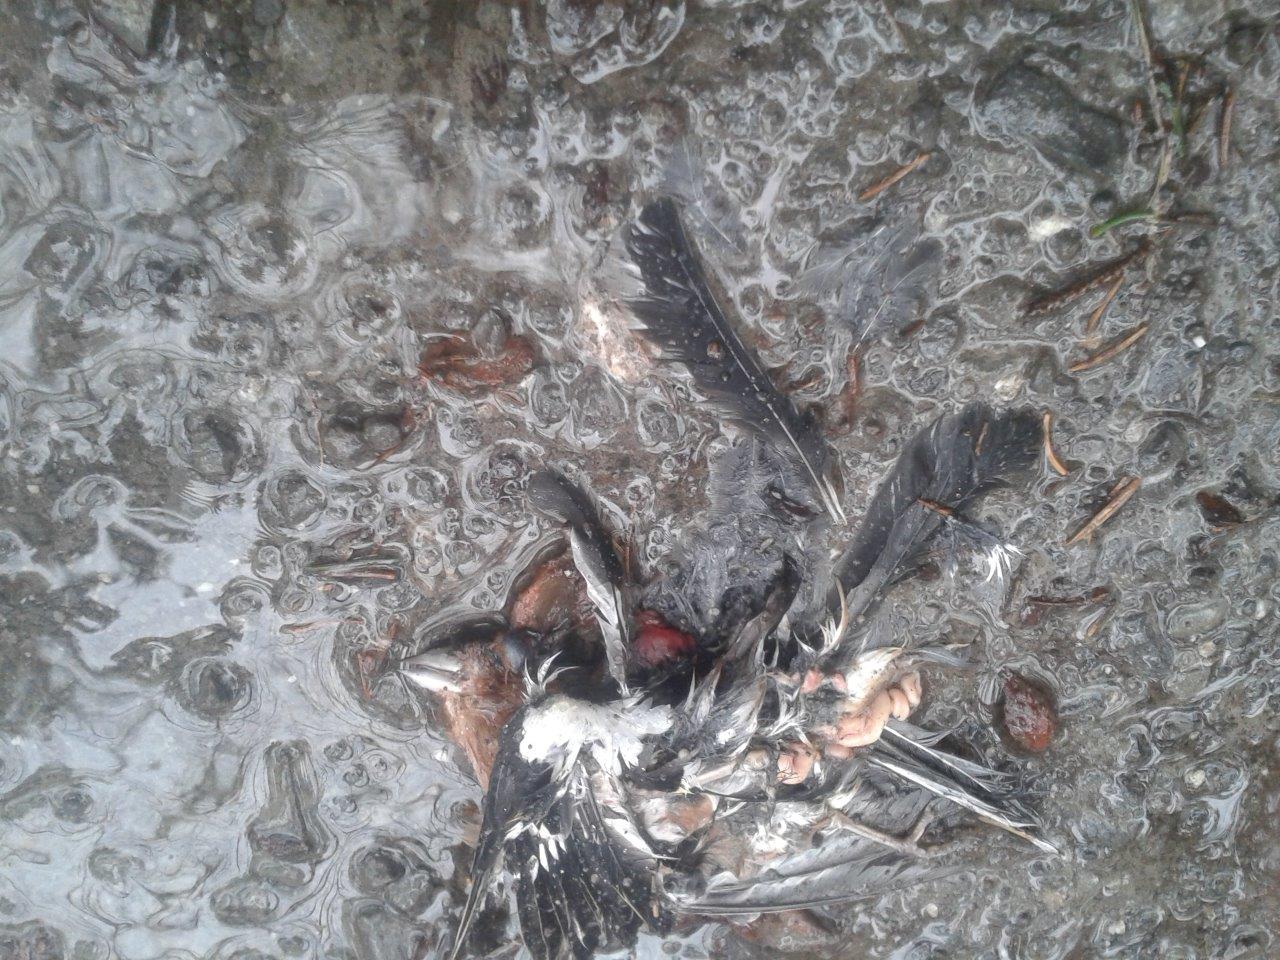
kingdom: Animalia
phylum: Chordata
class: Aves
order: Passeriformes
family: Fringillidae
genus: Fringilla
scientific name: Fringilla coelebs
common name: Common chaffinch
